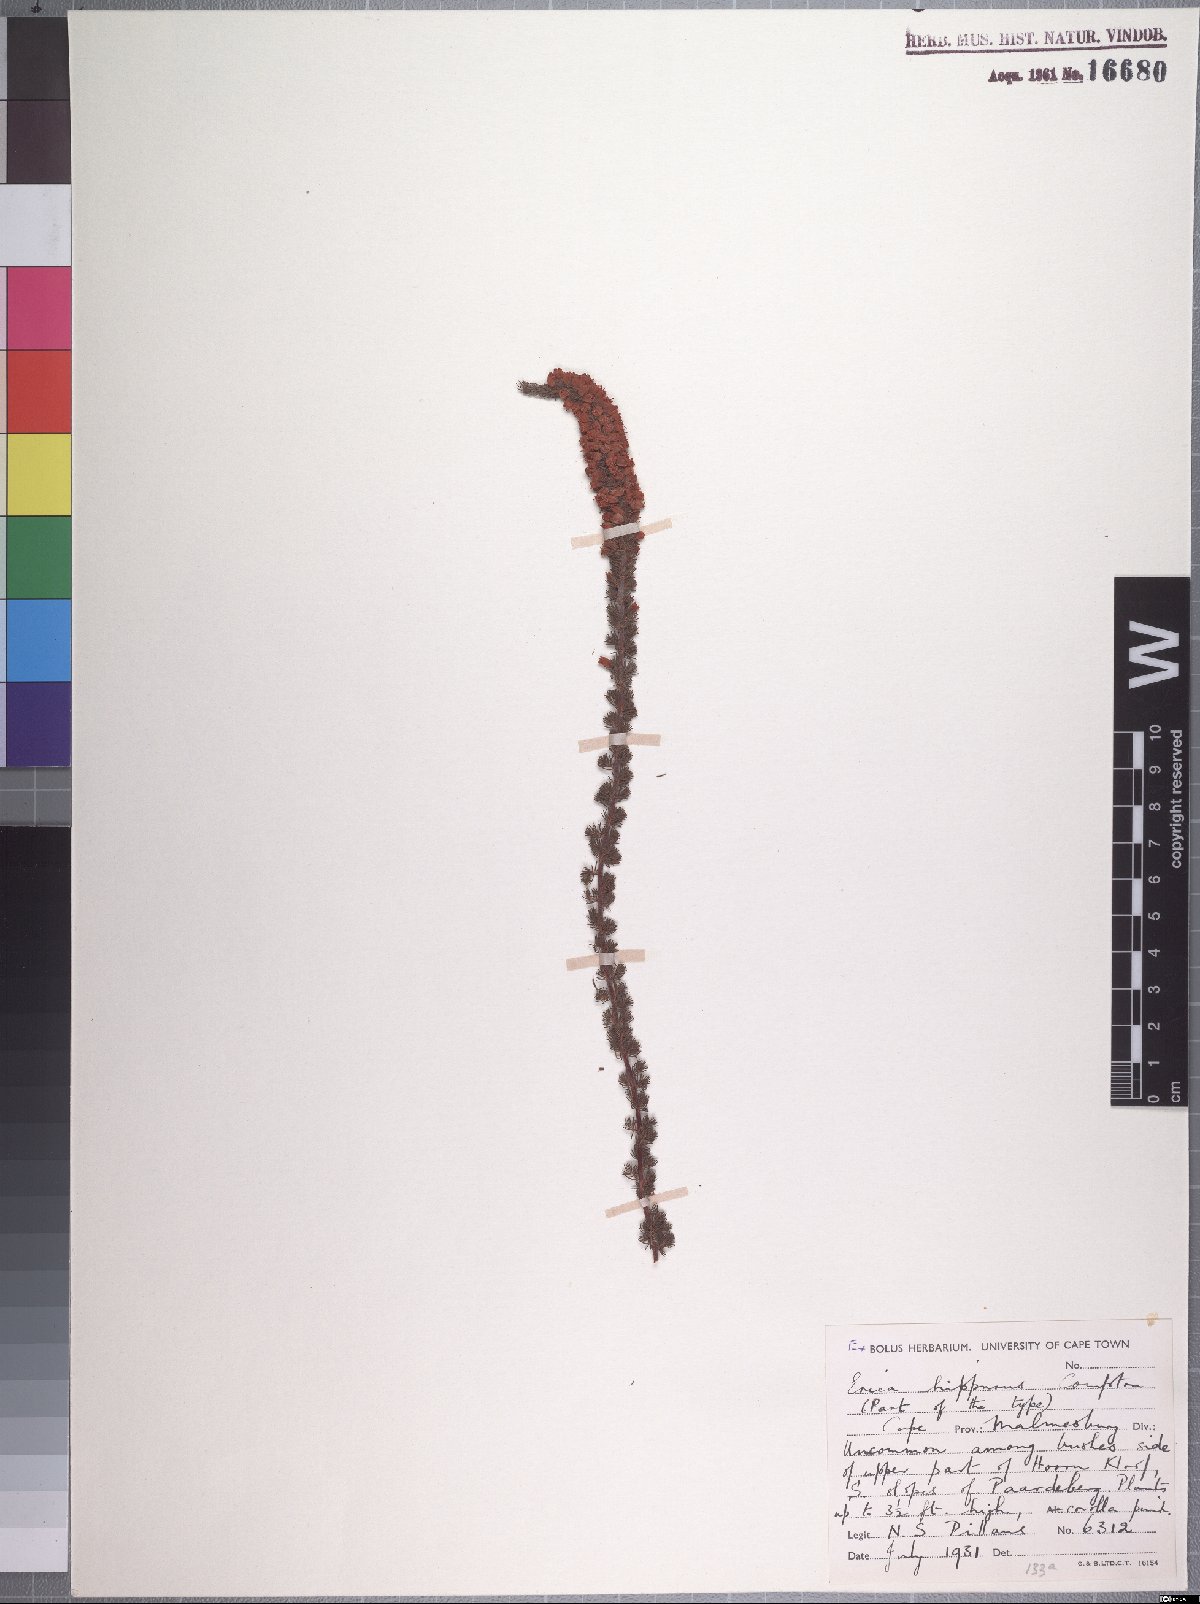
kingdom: Plantae
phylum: Tracheophyta
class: Magnoliopsida
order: Ericales
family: Ericaceae
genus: Erica
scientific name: Erica hippurus
